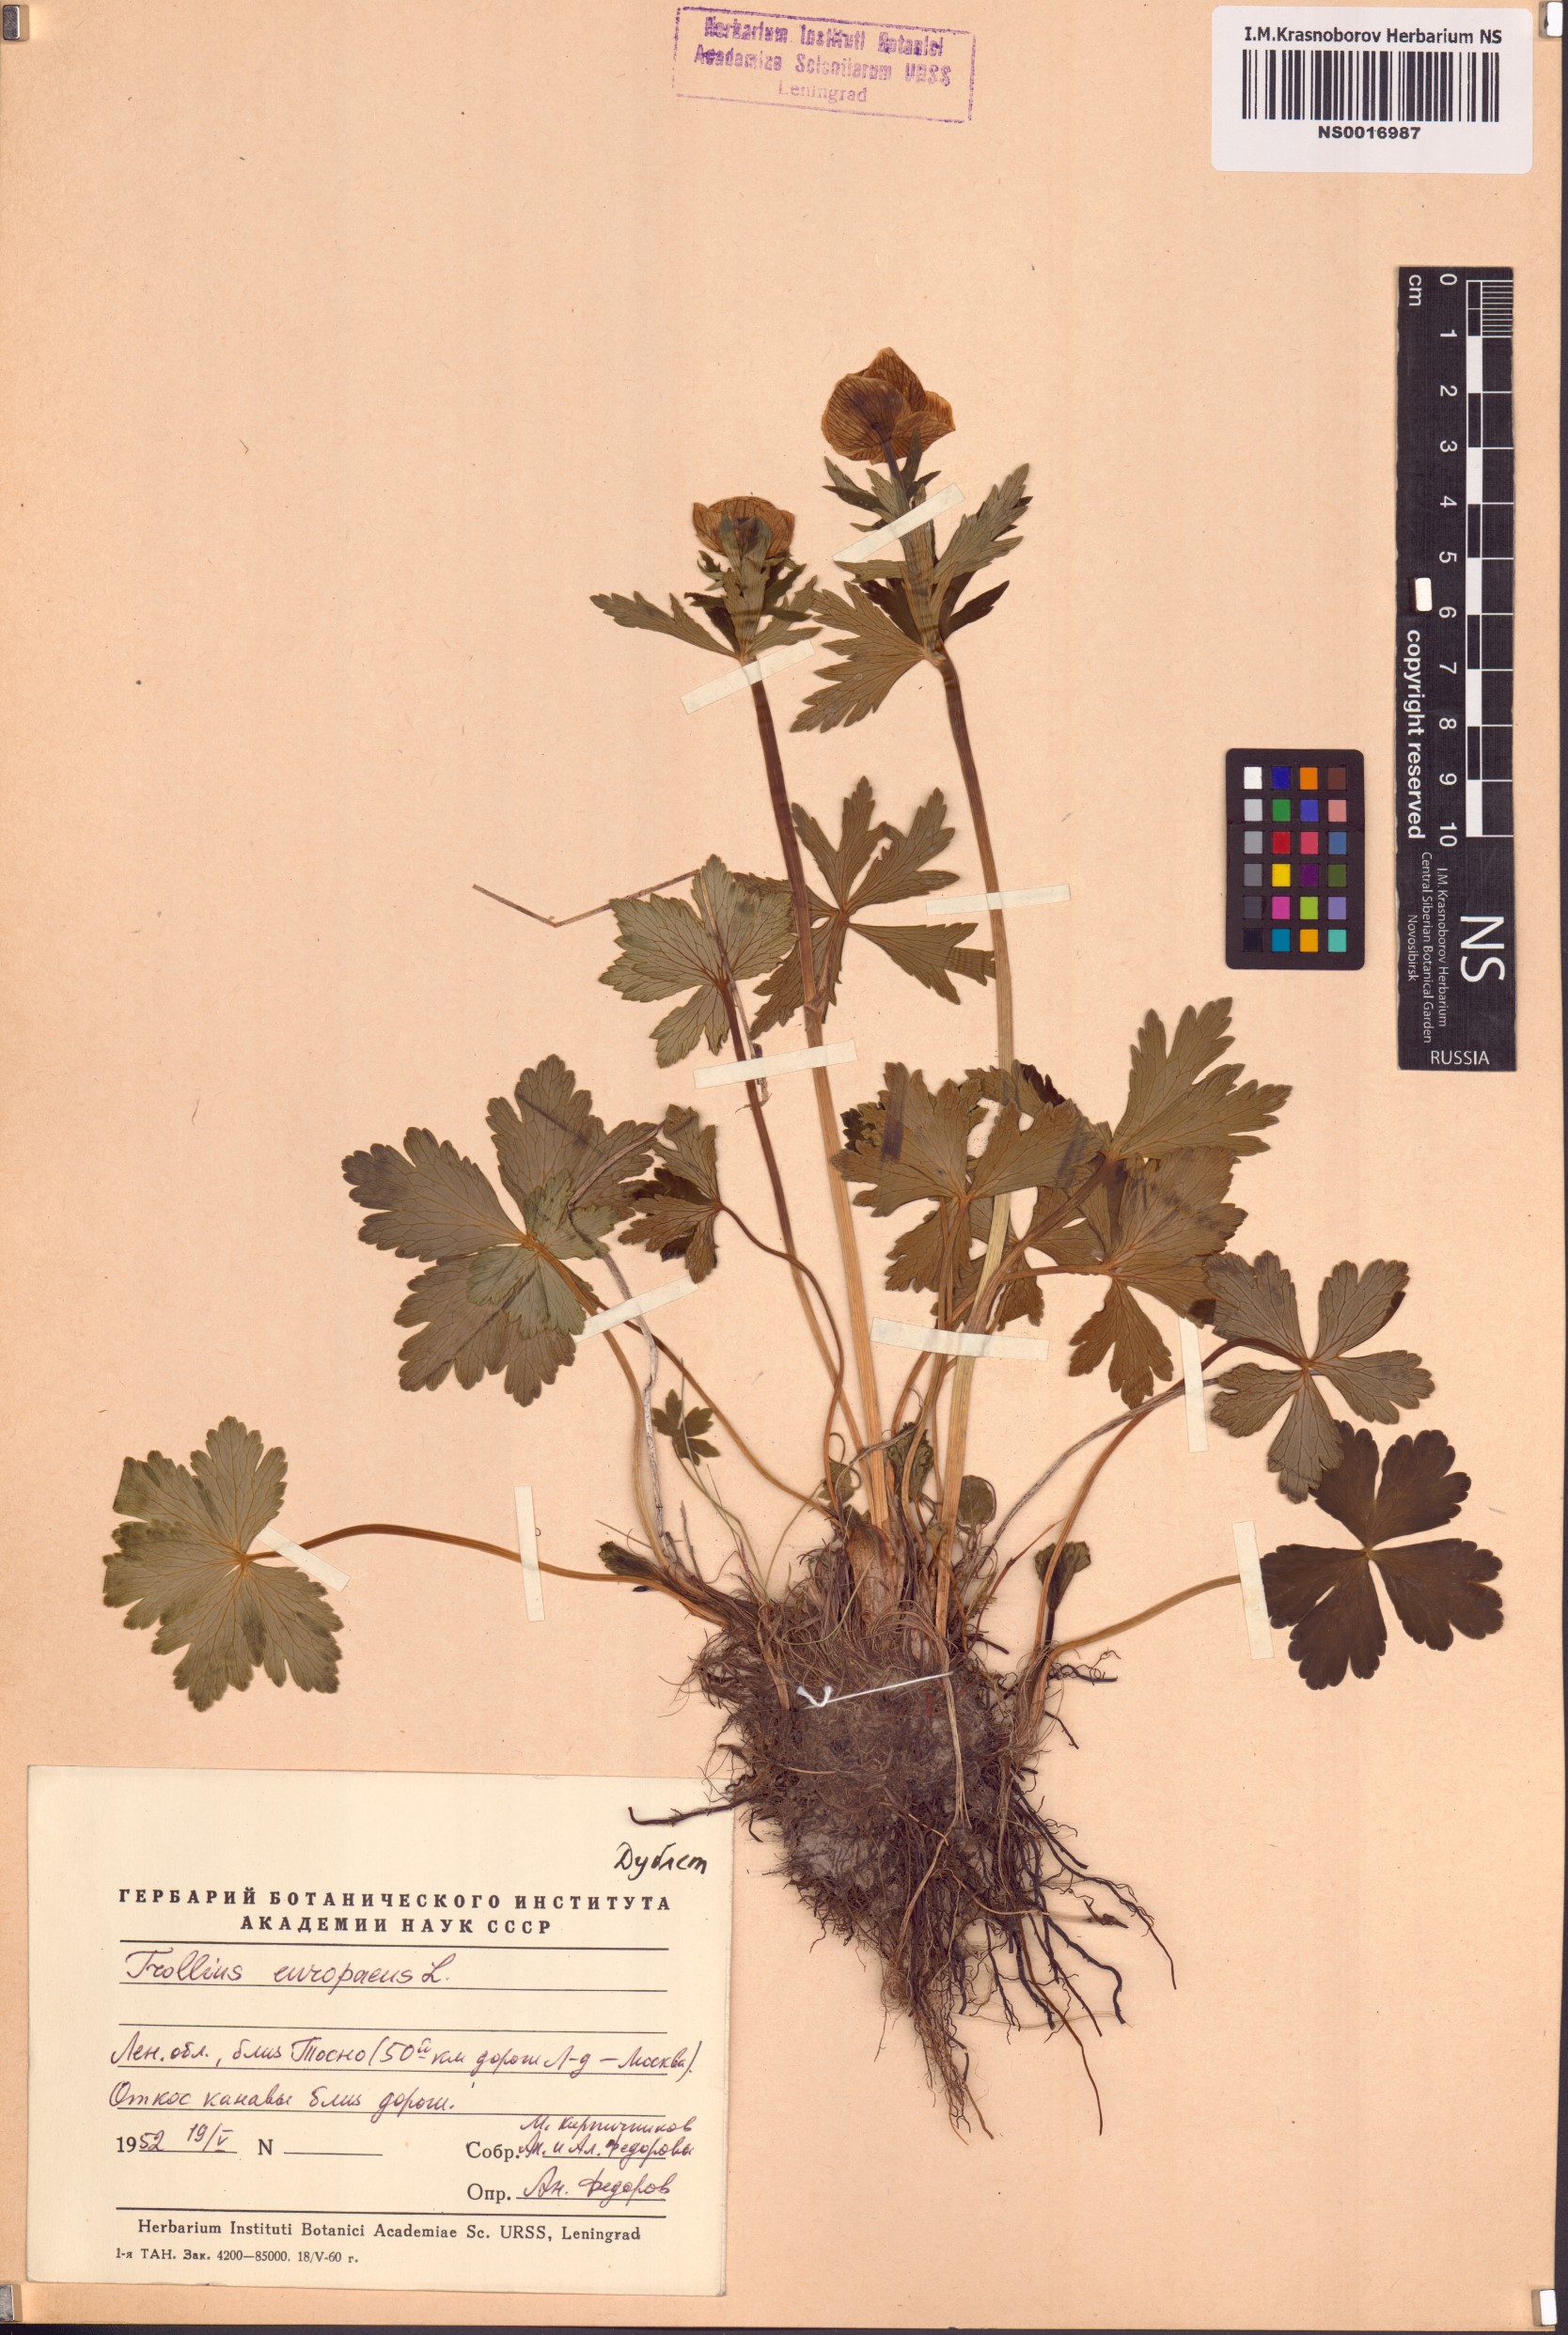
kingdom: Plantae
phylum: Tracheophyta
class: Magnoliopsida
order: Ranunculales
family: Ranunculaceae
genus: Trollius
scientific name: Trollius europaeus
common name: European globeflower
